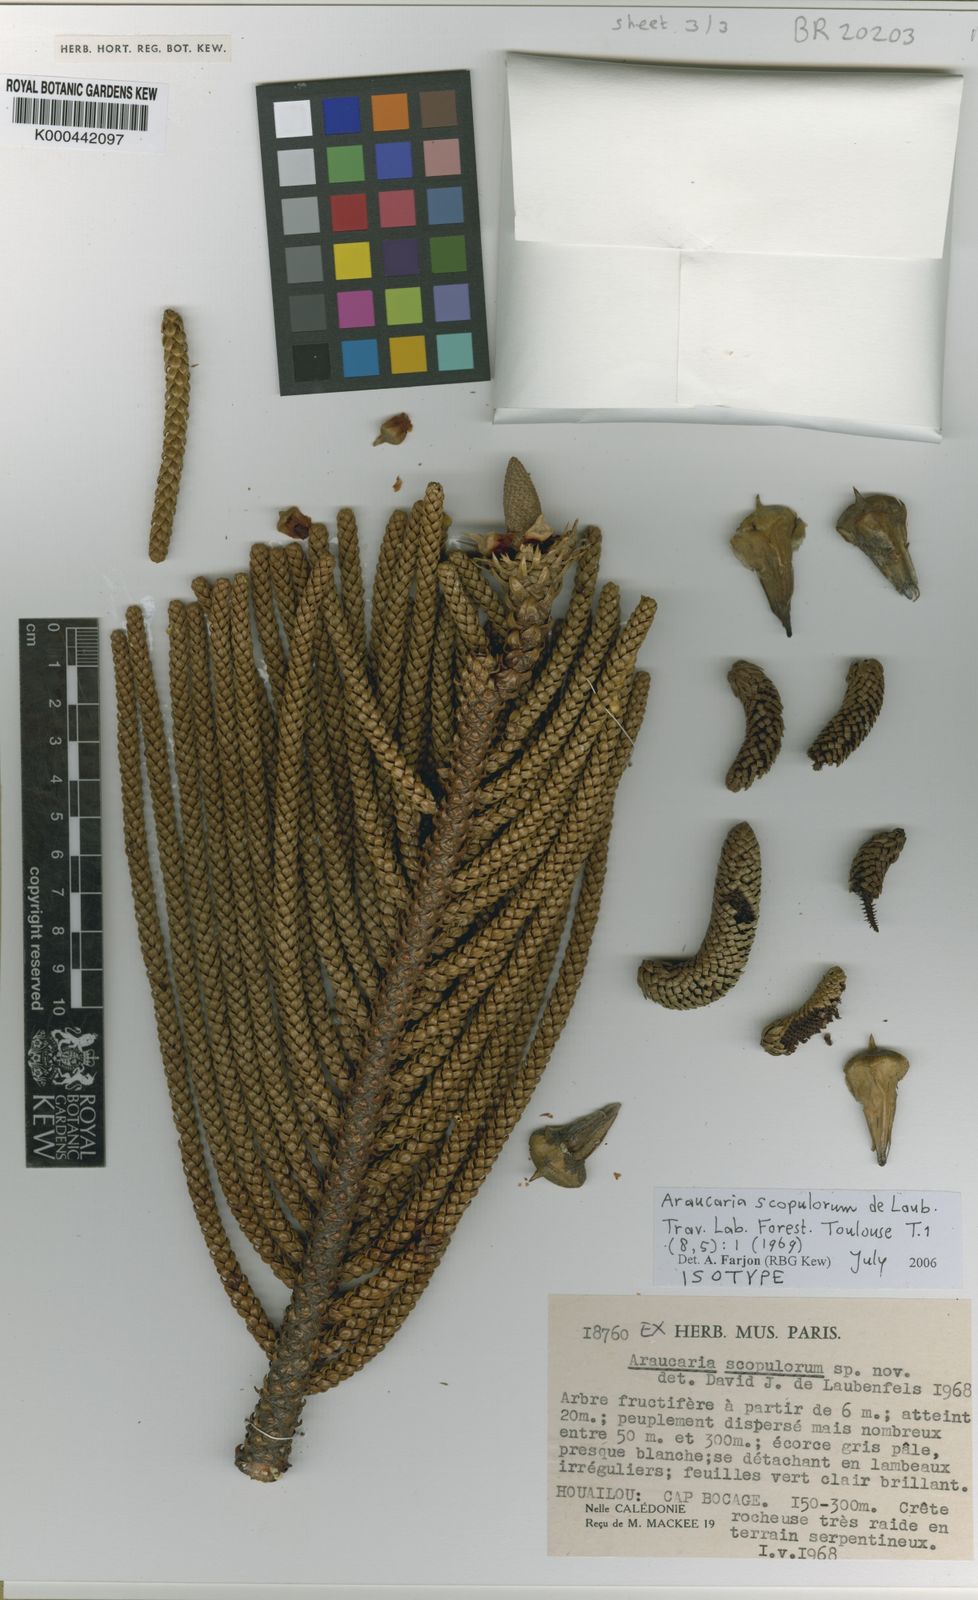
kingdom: Plantae
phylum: Tracheophyta
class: Pinopsida
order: Pinales
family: Araucariaceae
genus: Araucaria
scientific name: Araucaria scopulorum
